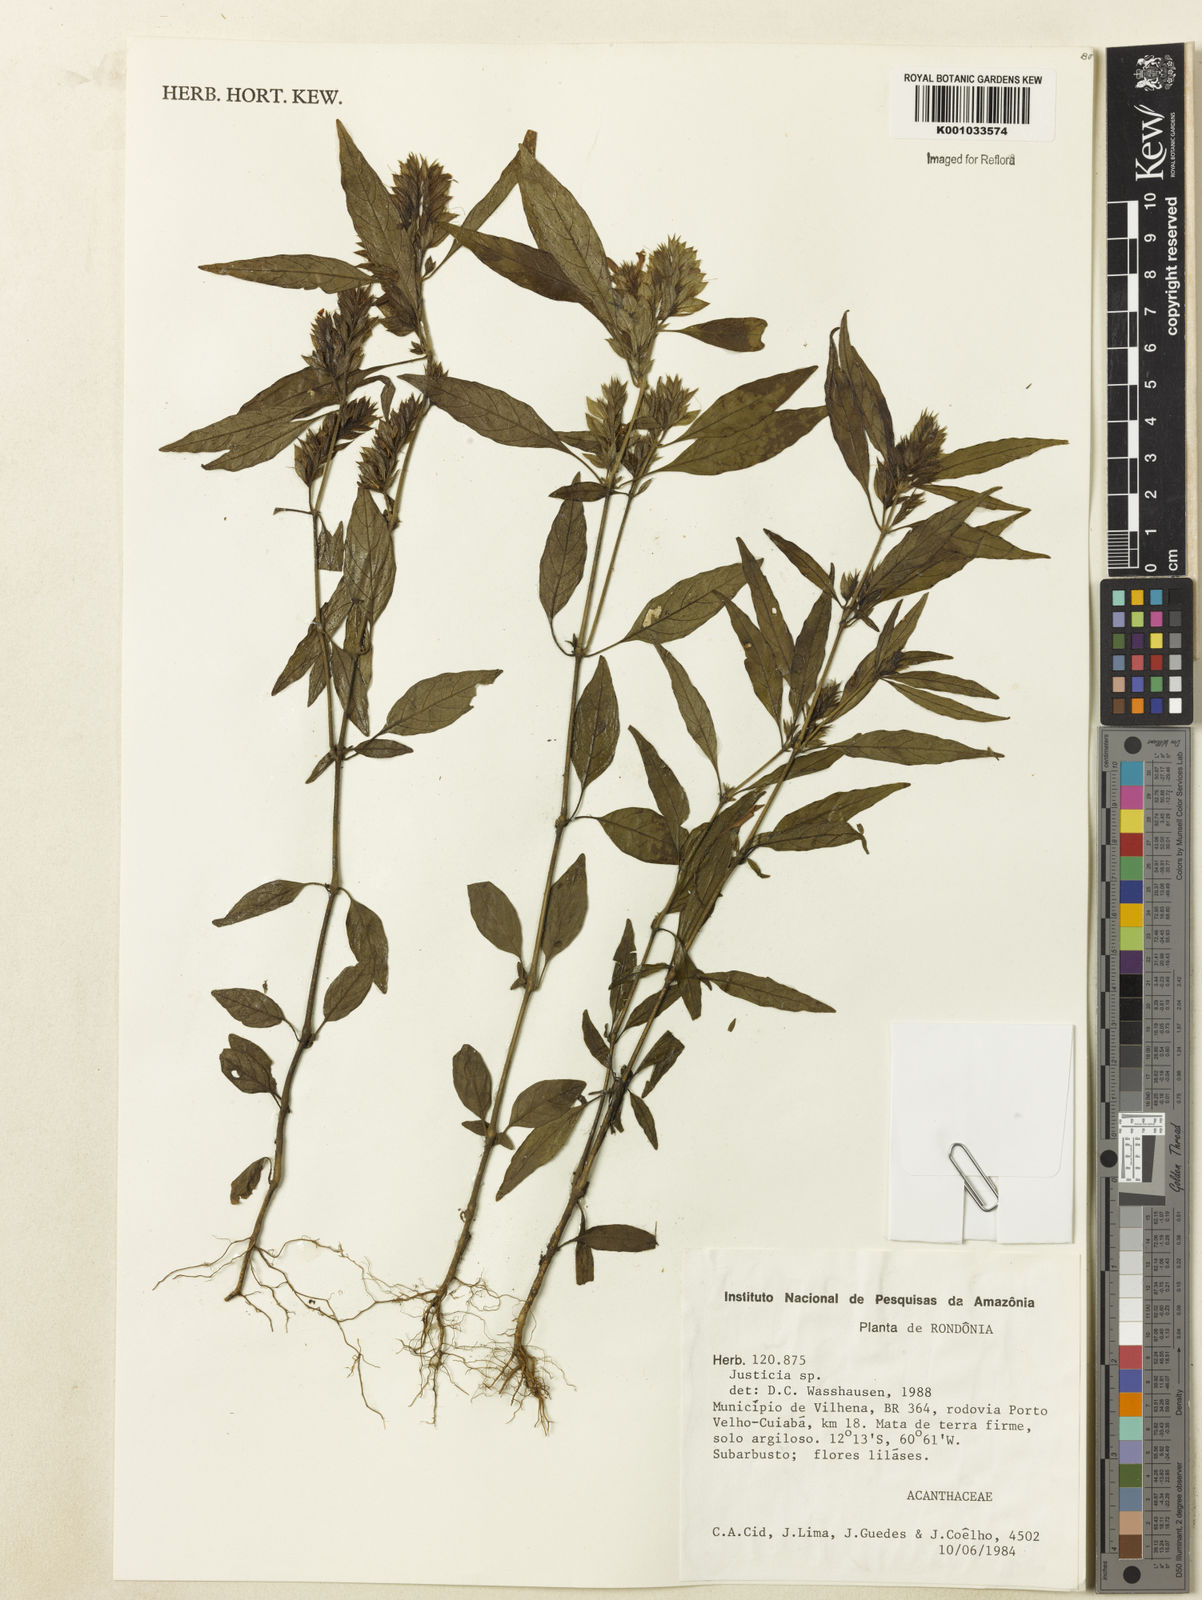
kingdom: Plantae
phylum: Tracheophyta
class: Magnoliopsida
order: Lamiales
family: Acanthaceae
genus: Justicia
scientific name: Justicia
